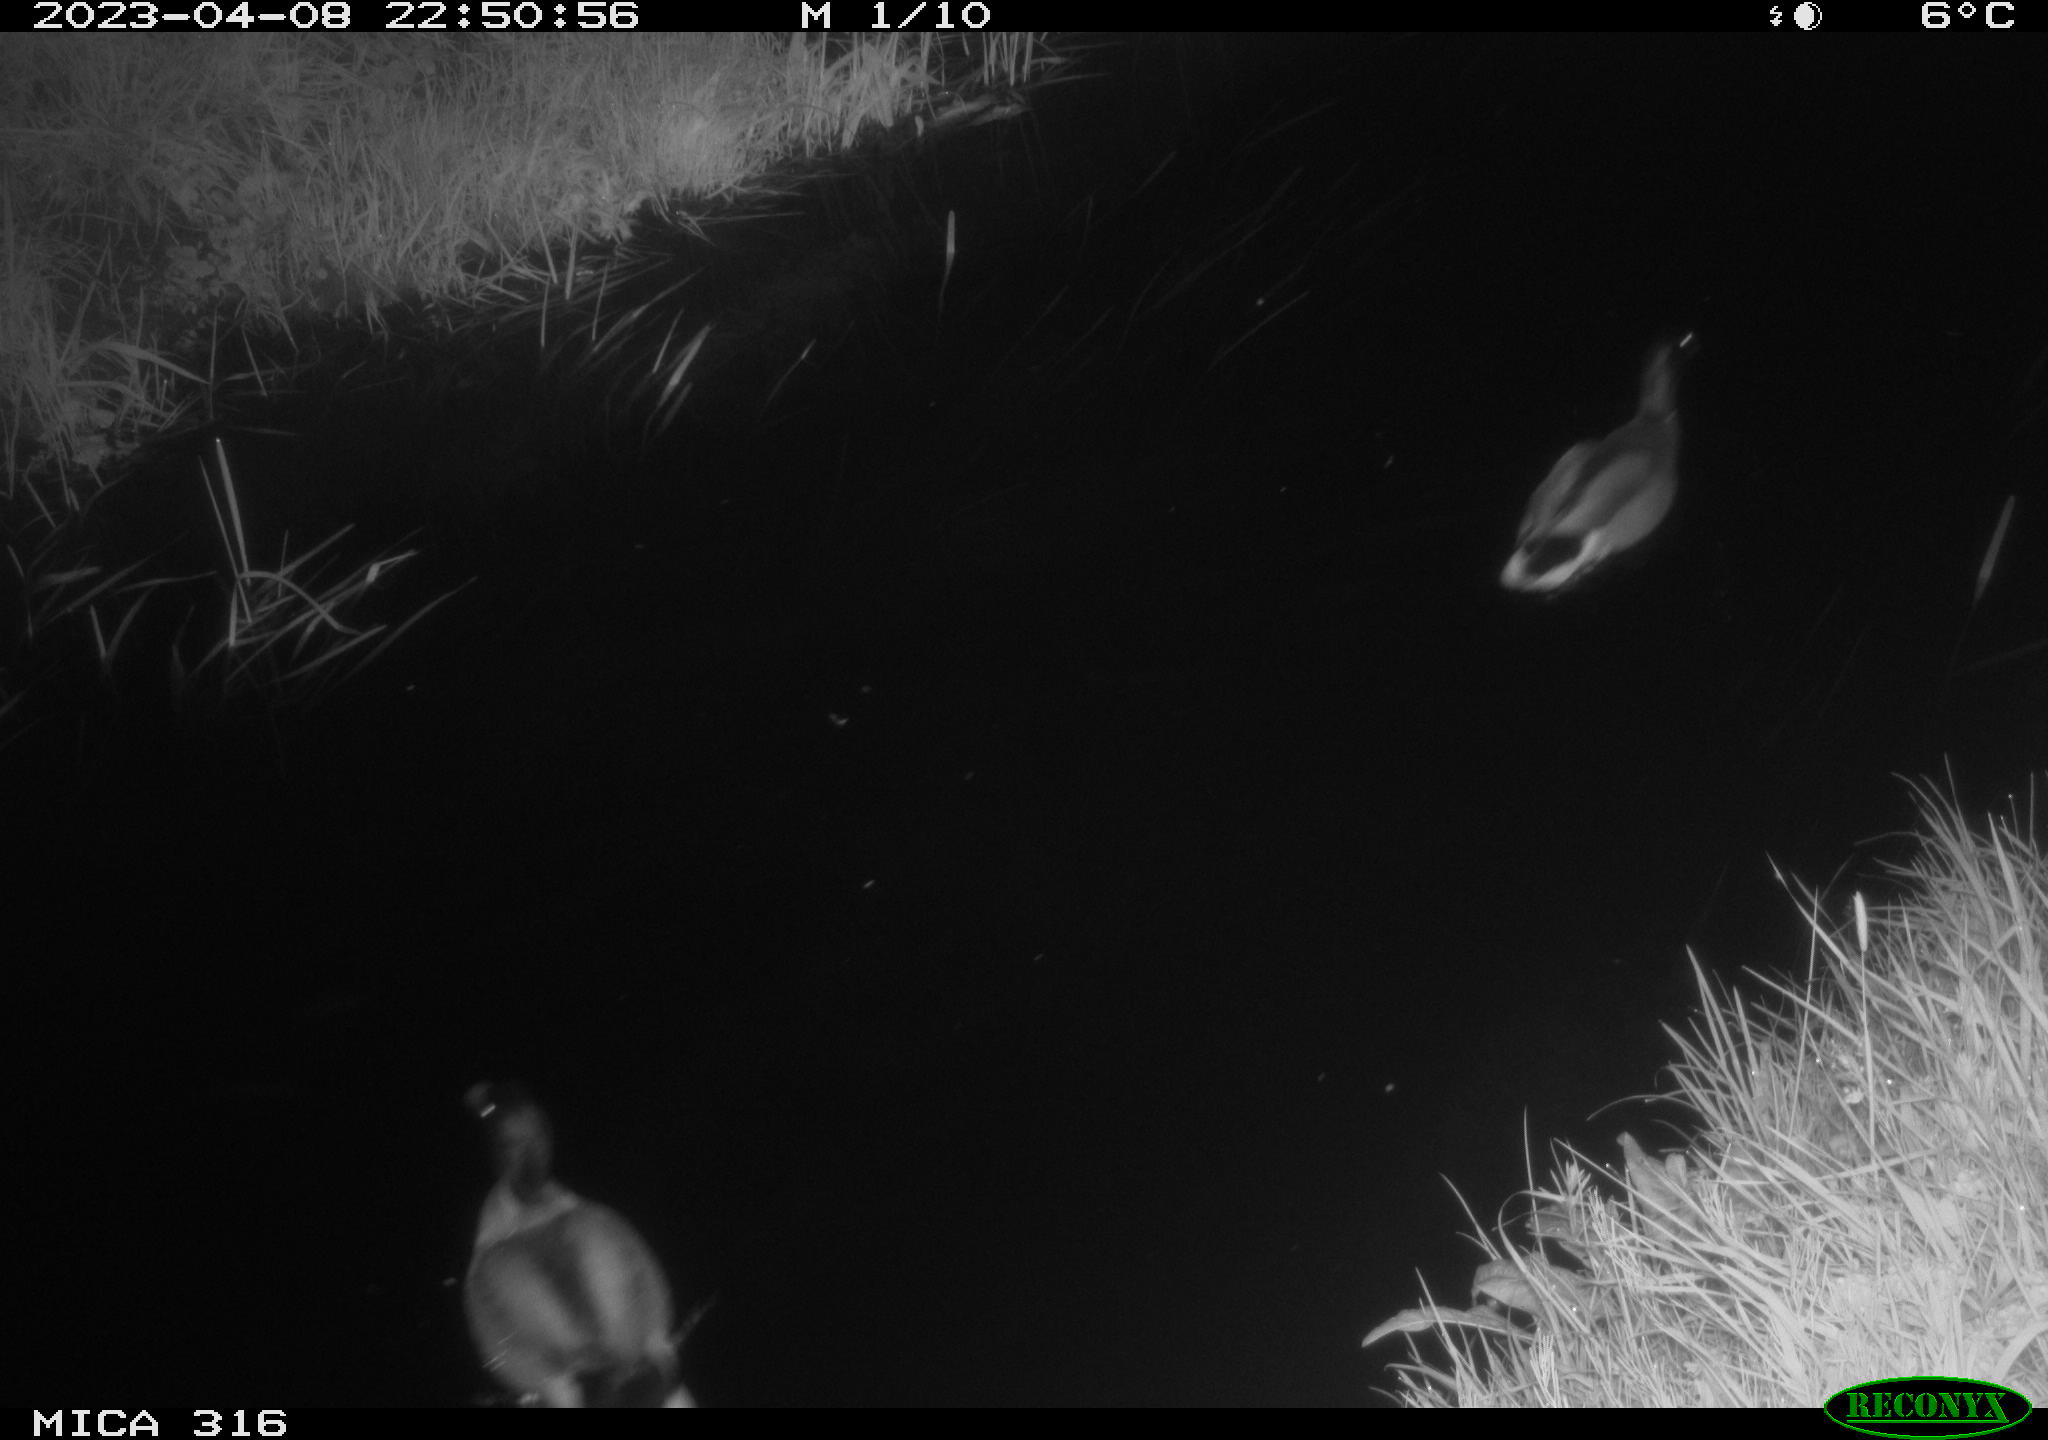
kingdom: Animalia
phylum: Chordata
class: Aves
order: Anseriformes
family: Anatidae
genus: Anas
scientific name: Anas
